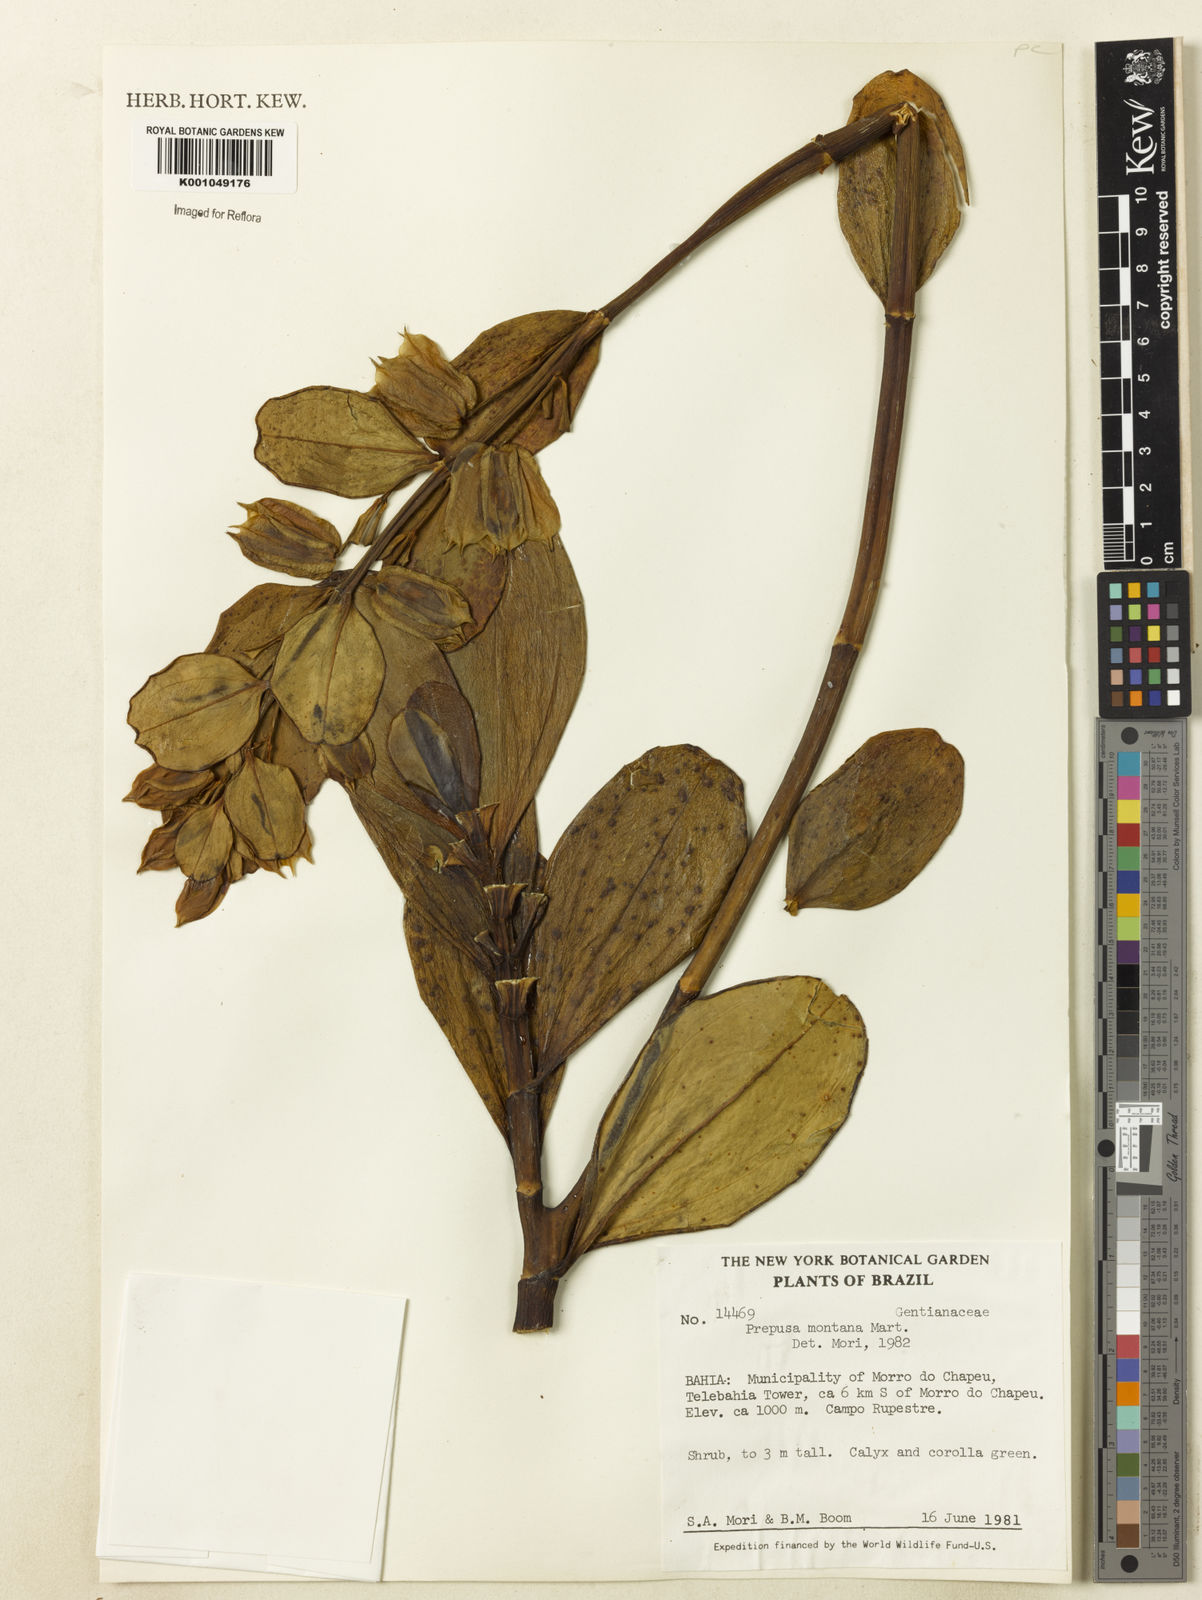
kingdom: Plantae
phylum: Tracheophyta
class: Magnoliopsida
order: Gentianales
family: Gentianaceae
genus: Prepusa
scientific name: Prepusa montana
